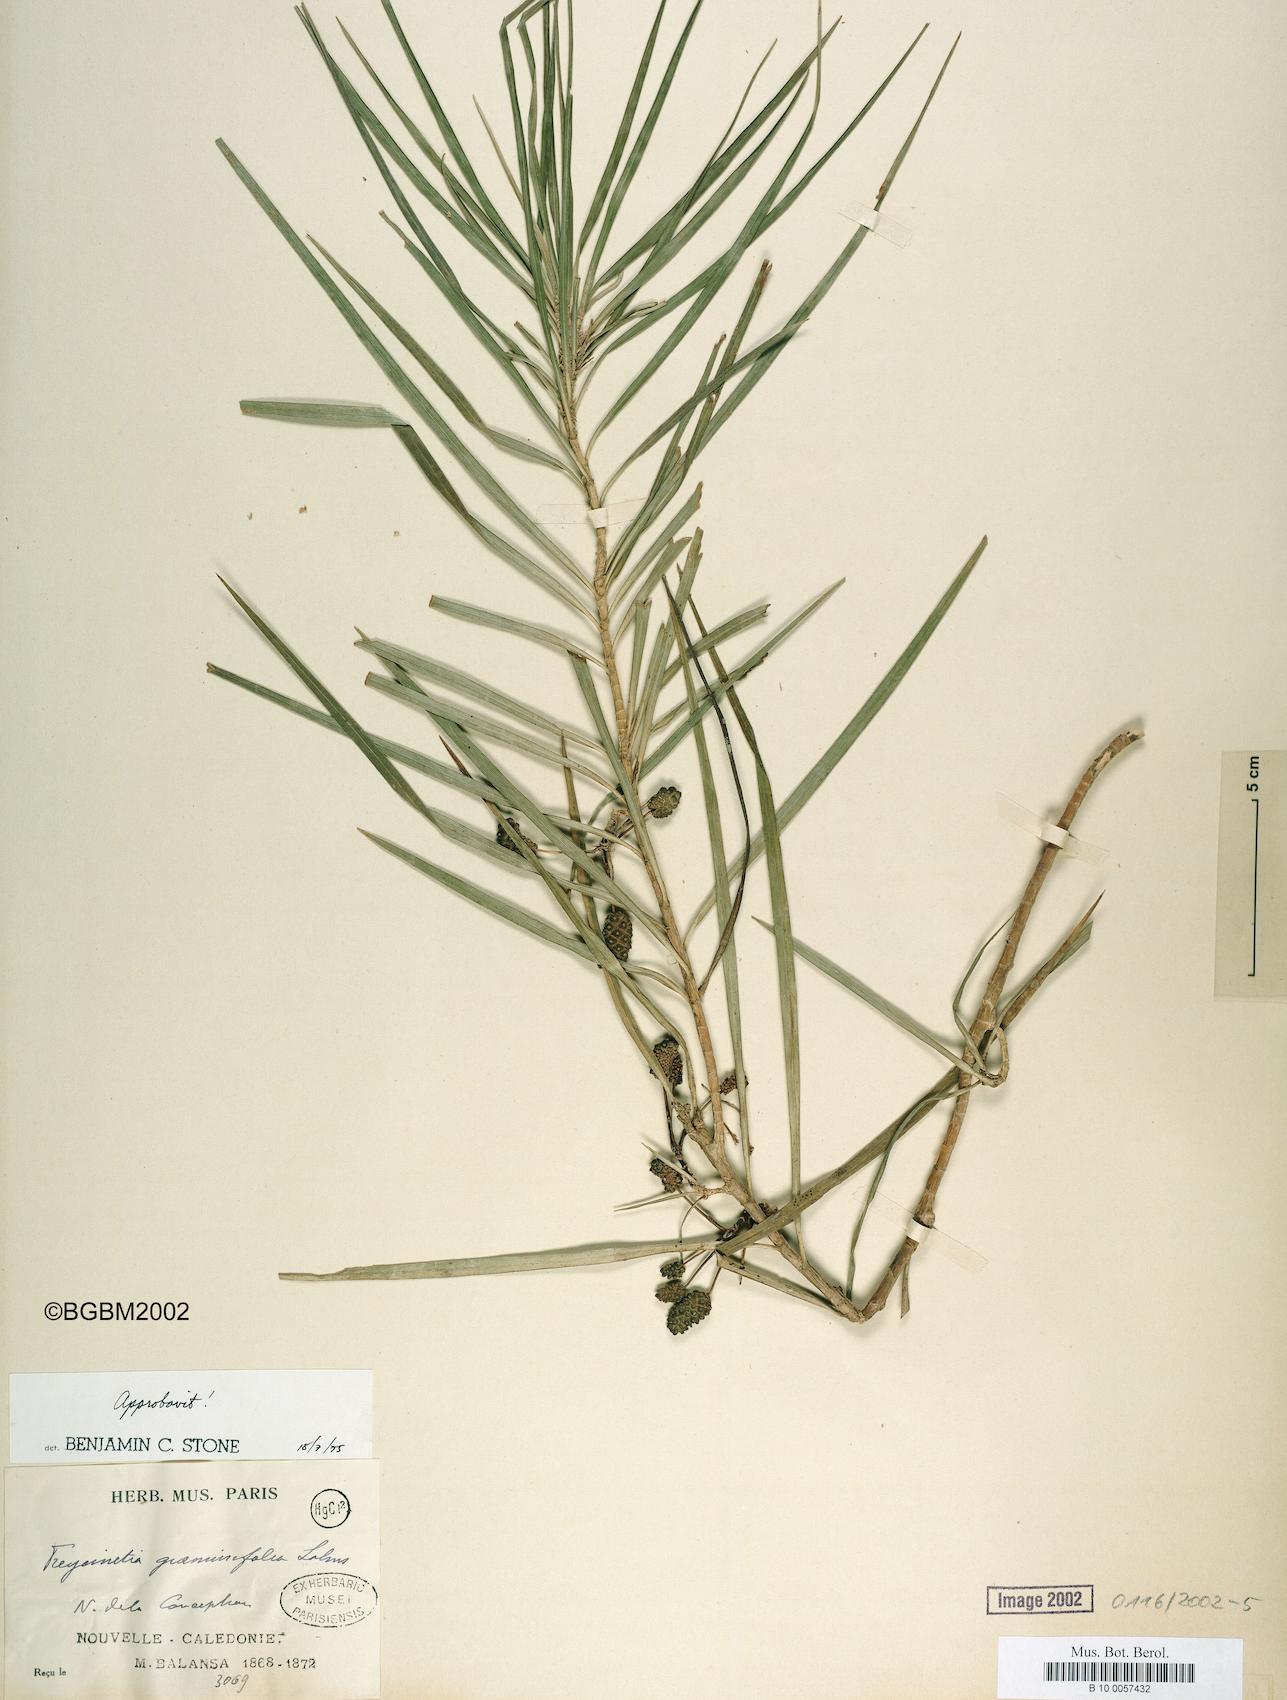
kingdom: Plantae
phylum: Tracheophyta
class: Liliopsida
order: Pandanales
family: Pandanaceae
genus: Freycinetia
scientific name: Freycinetia graminifolia
